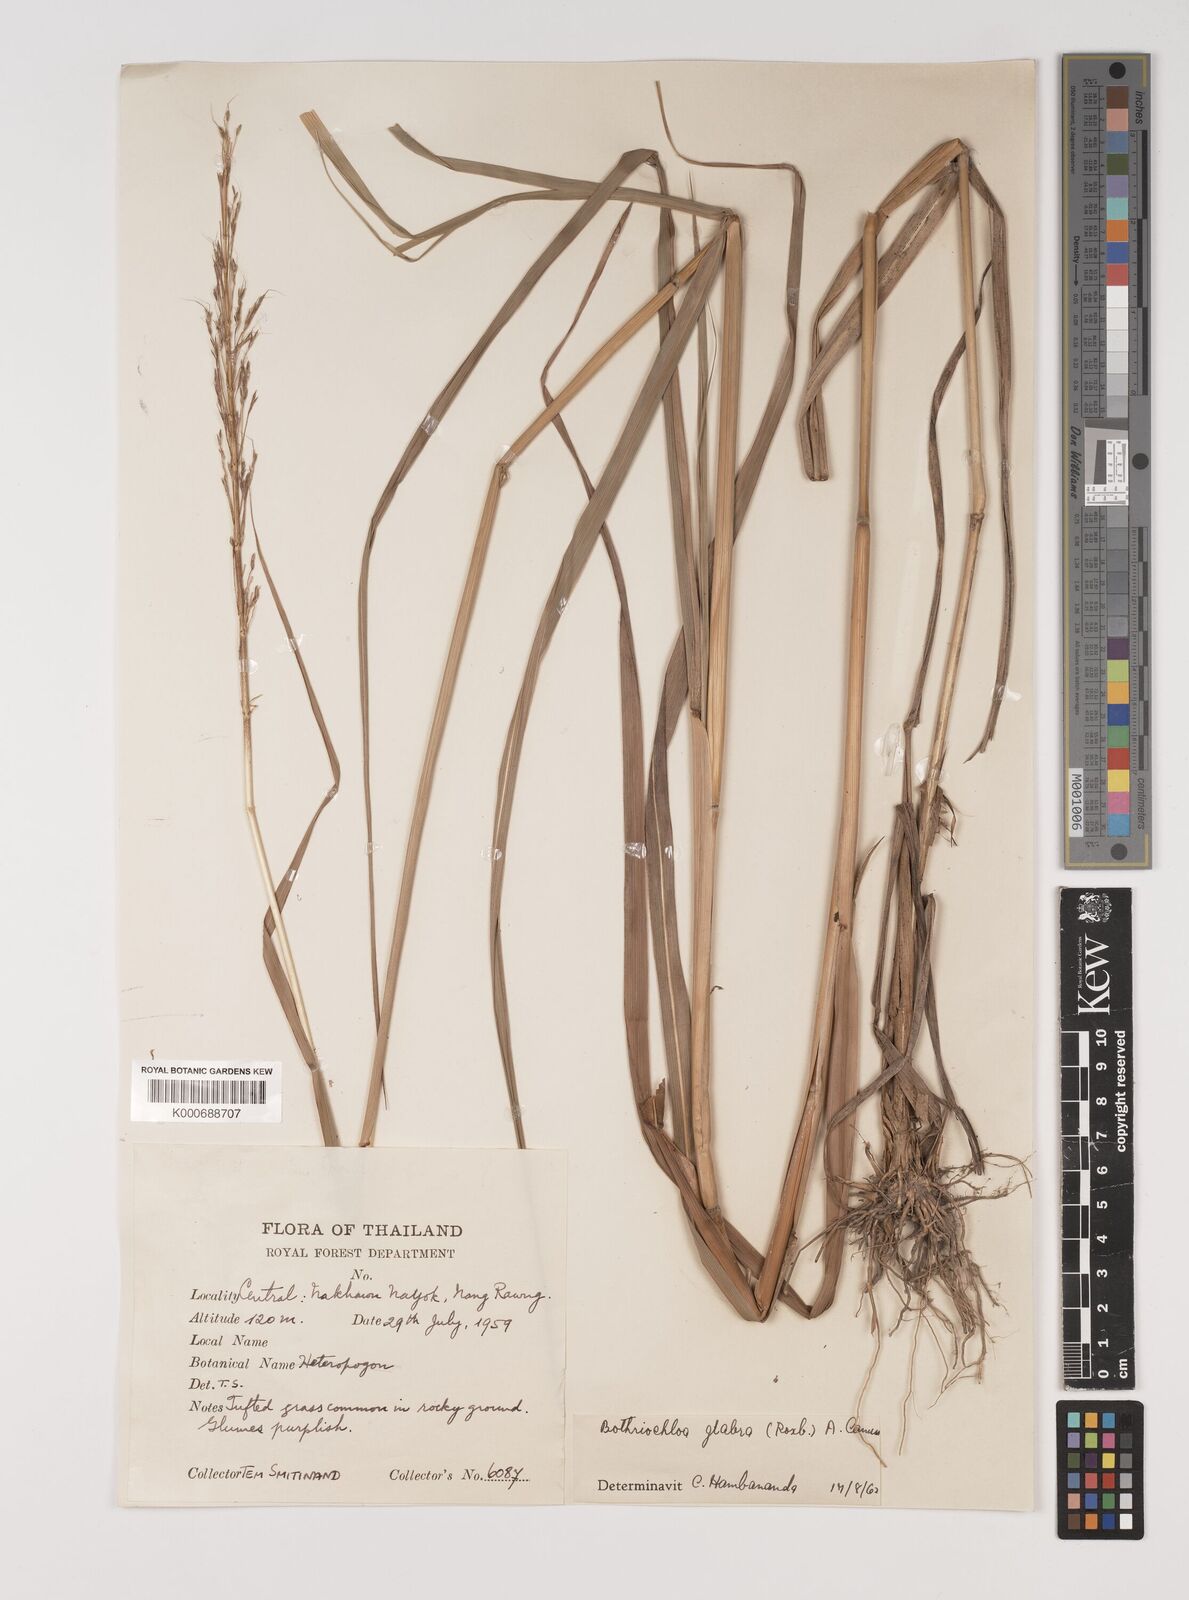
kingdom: Plantae
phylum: Tracheophyta
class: Liliopsida
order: Poales
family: Poaceae
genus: Bothriochloa
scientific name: Bothriochloa bladhii
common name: Caucasian bluestem
